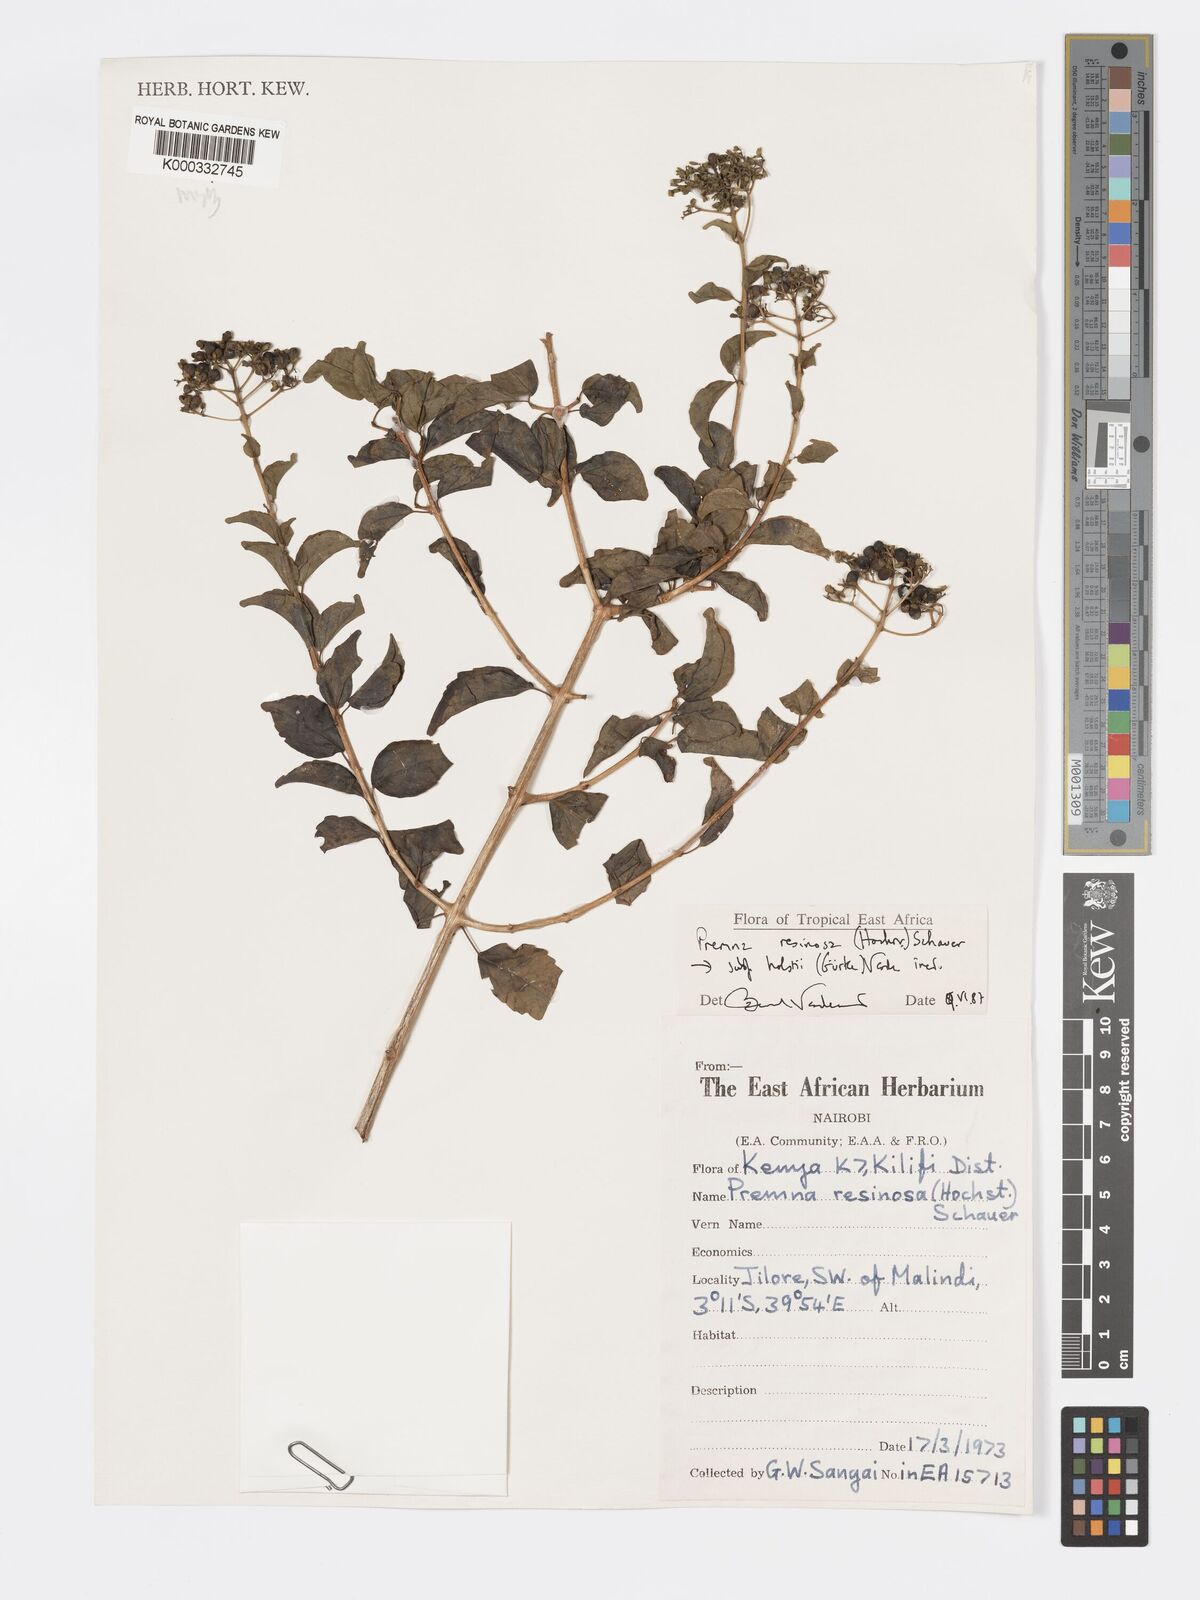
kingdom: Plantae
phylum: Tracheophyta
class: Magnoliopsida
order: Lamiales
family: Lamiaceae
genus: Premna
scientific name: Premna resinosa
